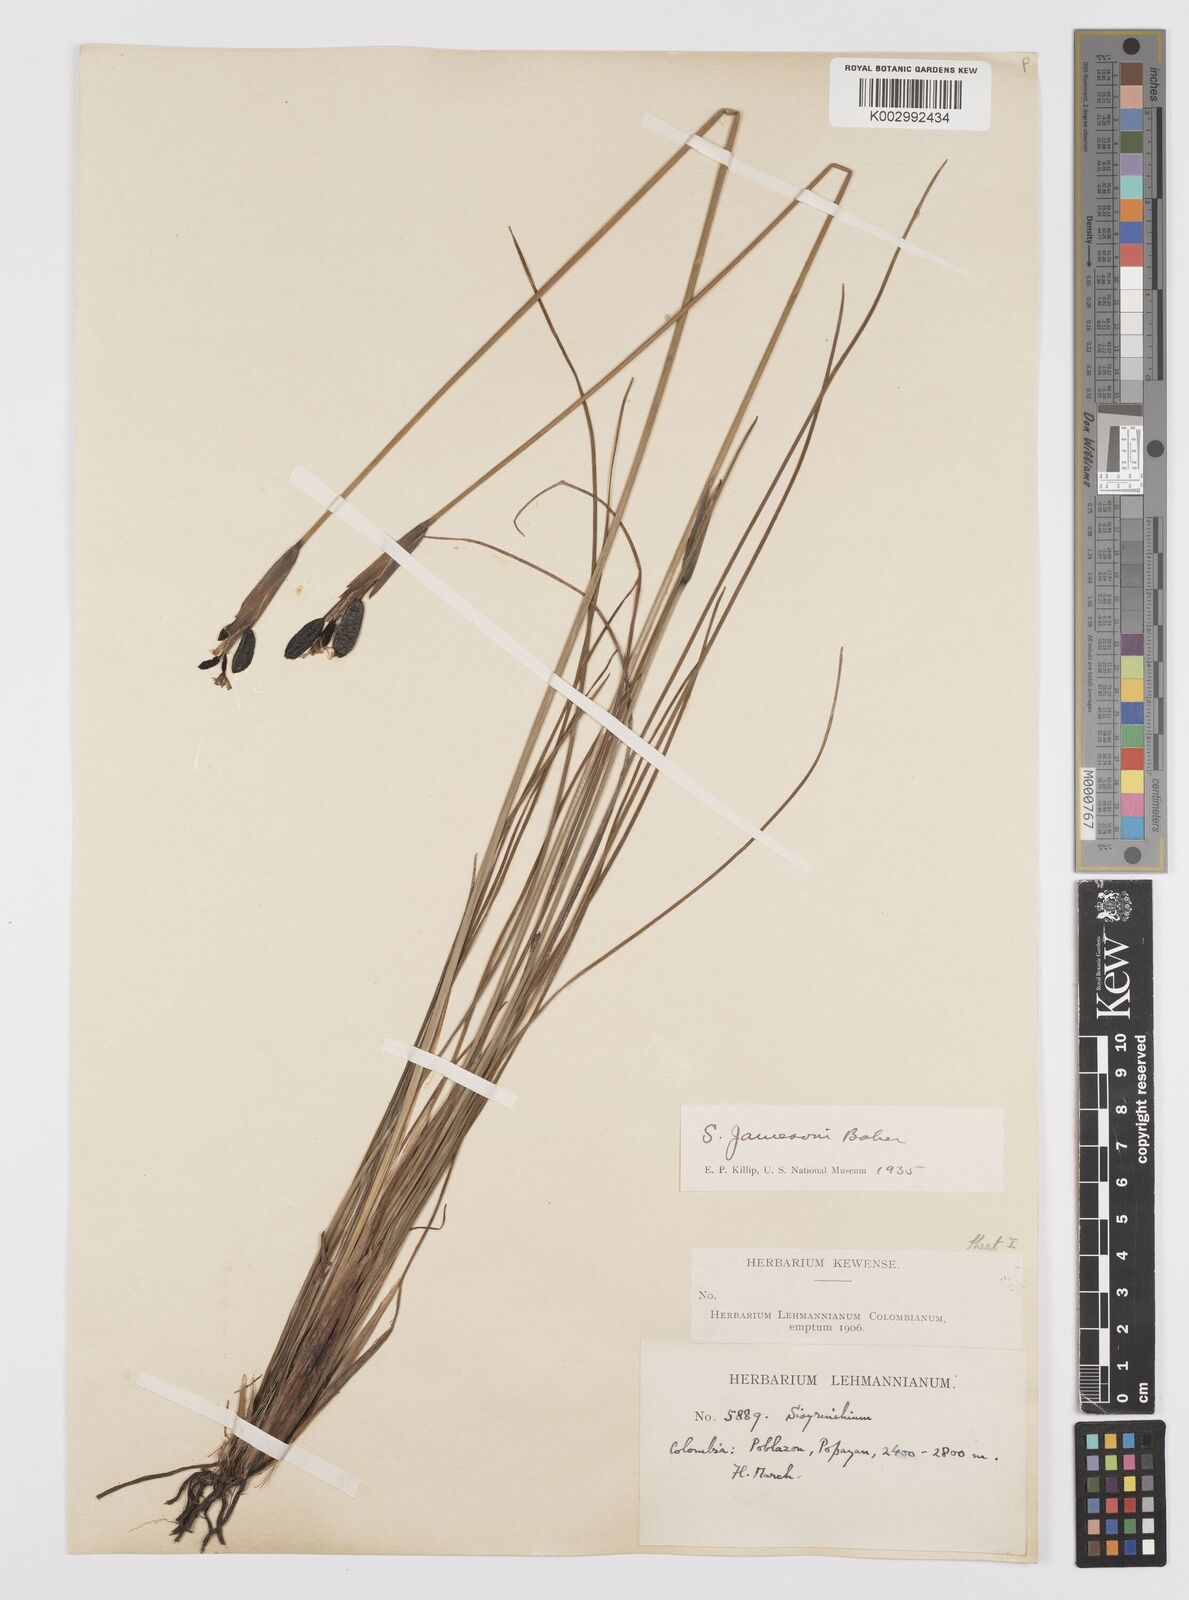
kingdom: Plantae
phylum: Tracheophyta
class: Liliopsida
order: Asparagales
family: Iridaceae
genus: Sisyrinchium
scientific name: Sisyrinchium jamesonii
